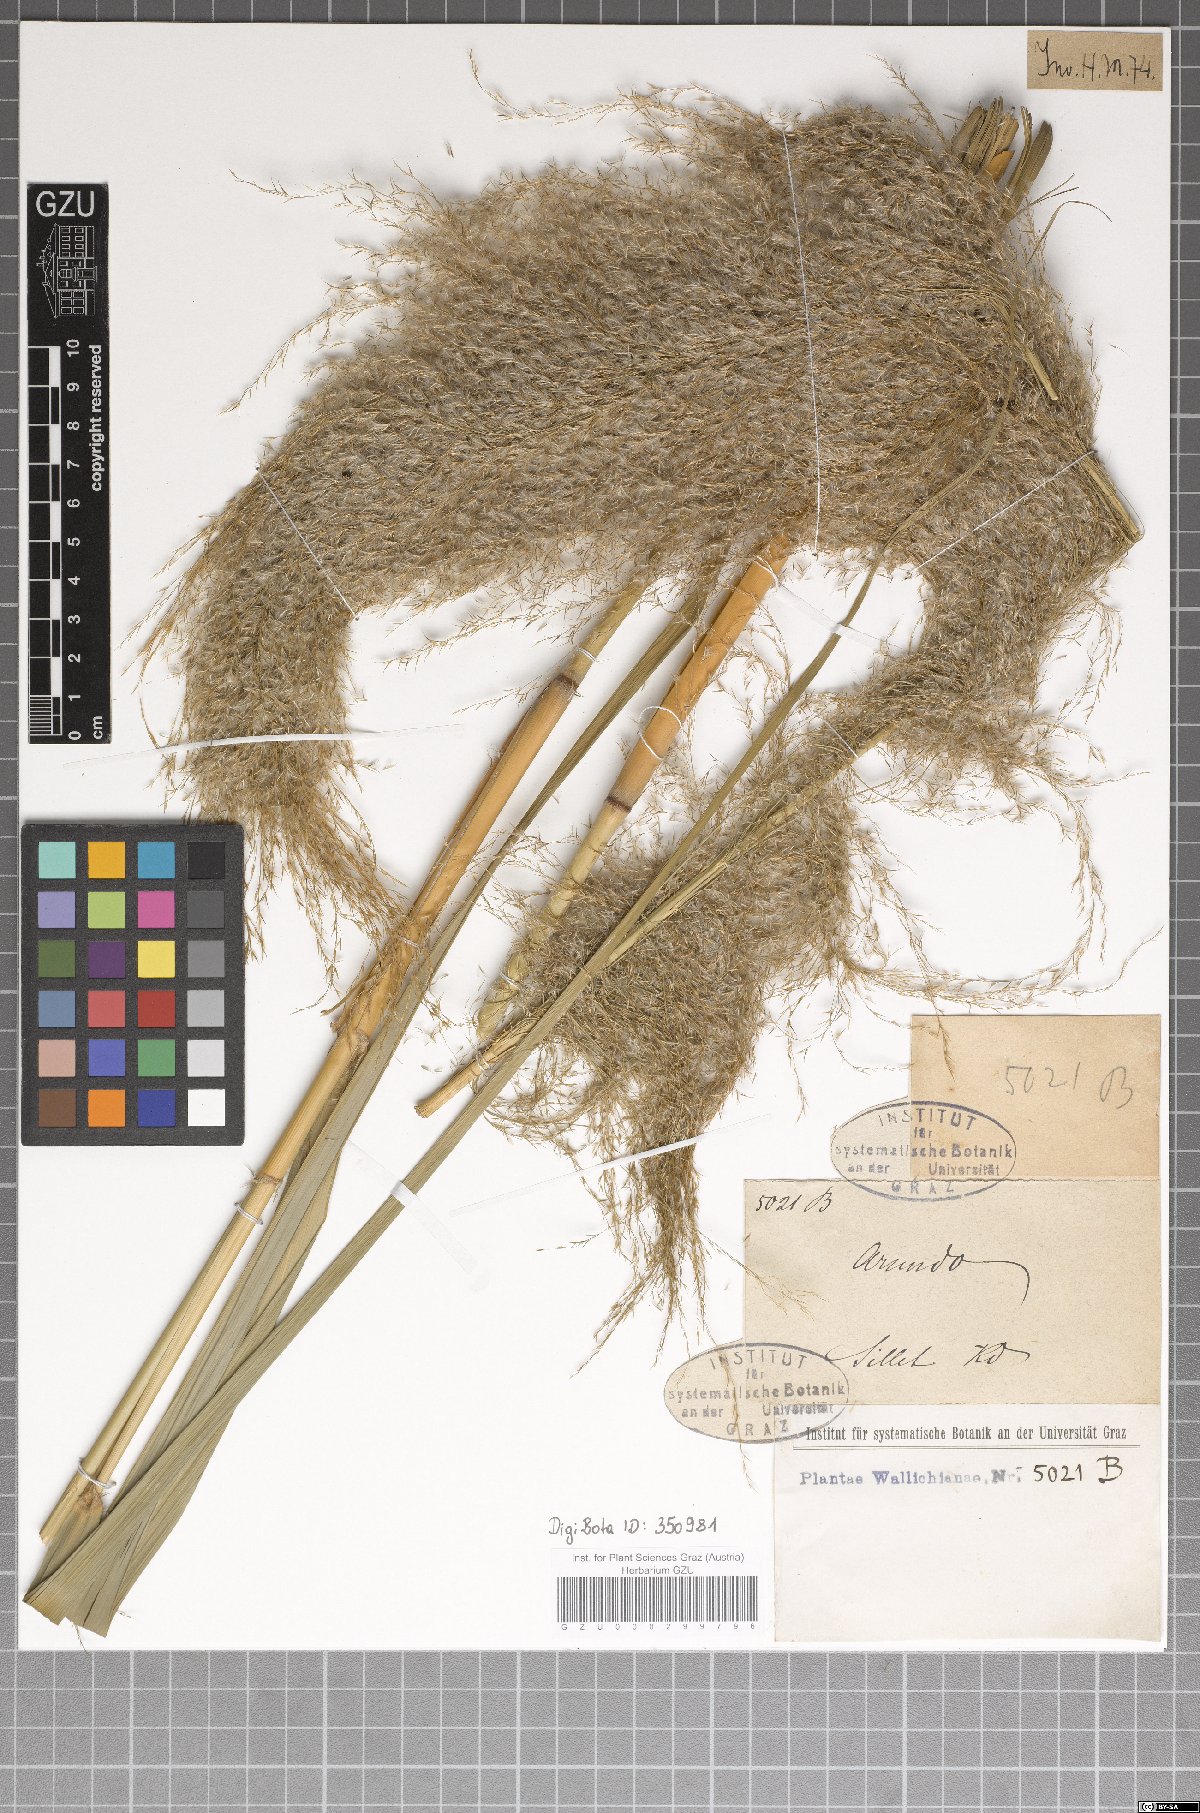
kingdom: Plantae
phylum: Tracheophyta
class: Liliopsida
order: Poales
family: Poaceae
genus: Arundo
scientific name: Arundo
